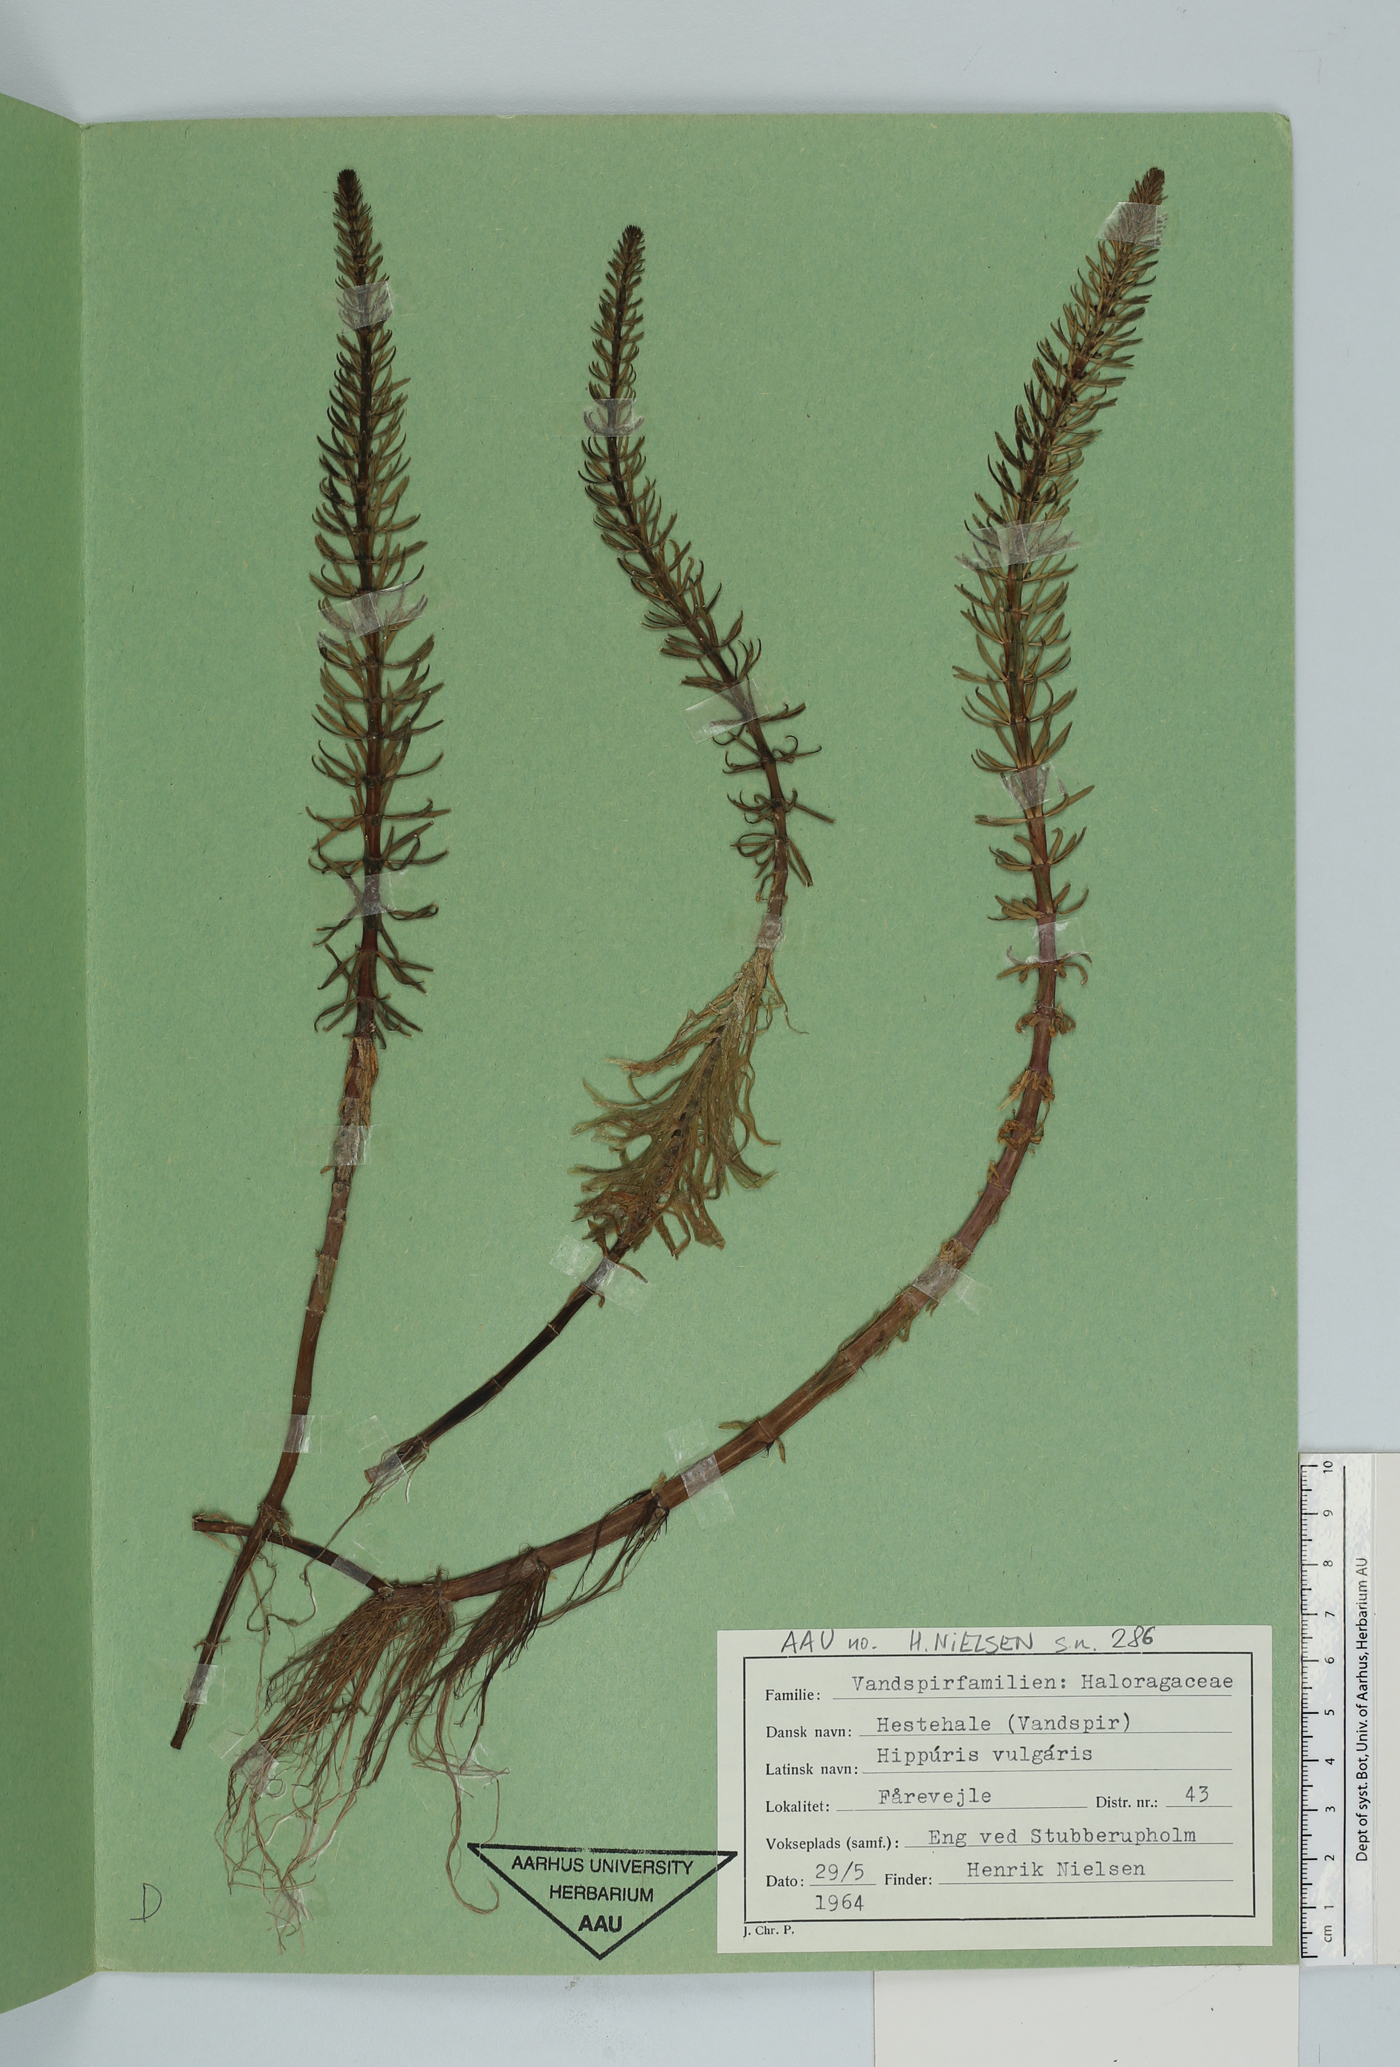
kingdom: Plantae
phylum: Tracheophyta
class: Magnoliopsida
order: Lamiales
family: Plantaginaceae
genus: Hippuris
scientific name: Hippuris vulgaris
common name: Mare's-tail
